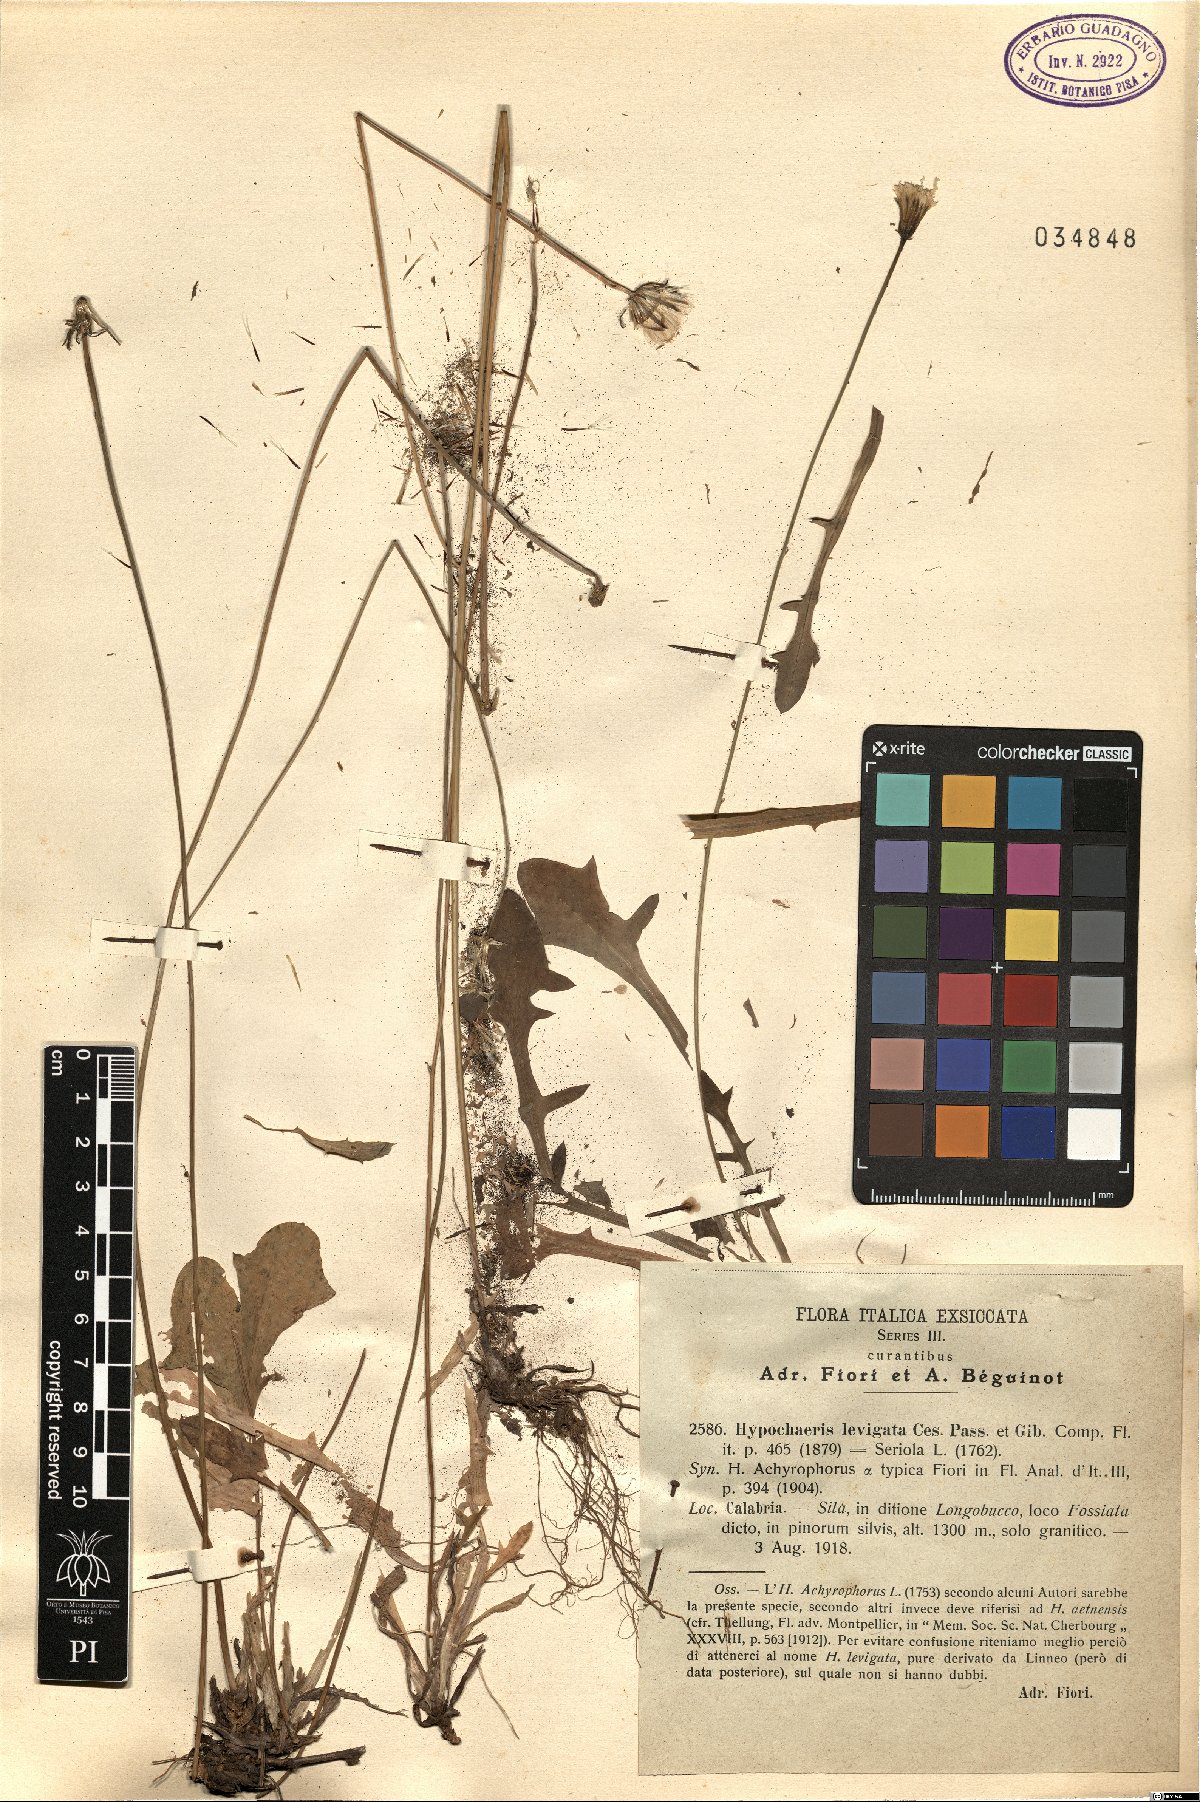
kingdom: Plantae
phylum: Tracheophyta
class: Magnoliopsida
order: Asterales
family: Asteraceae
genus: Achyrophorus
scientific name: Achyrophorus laevigatus
